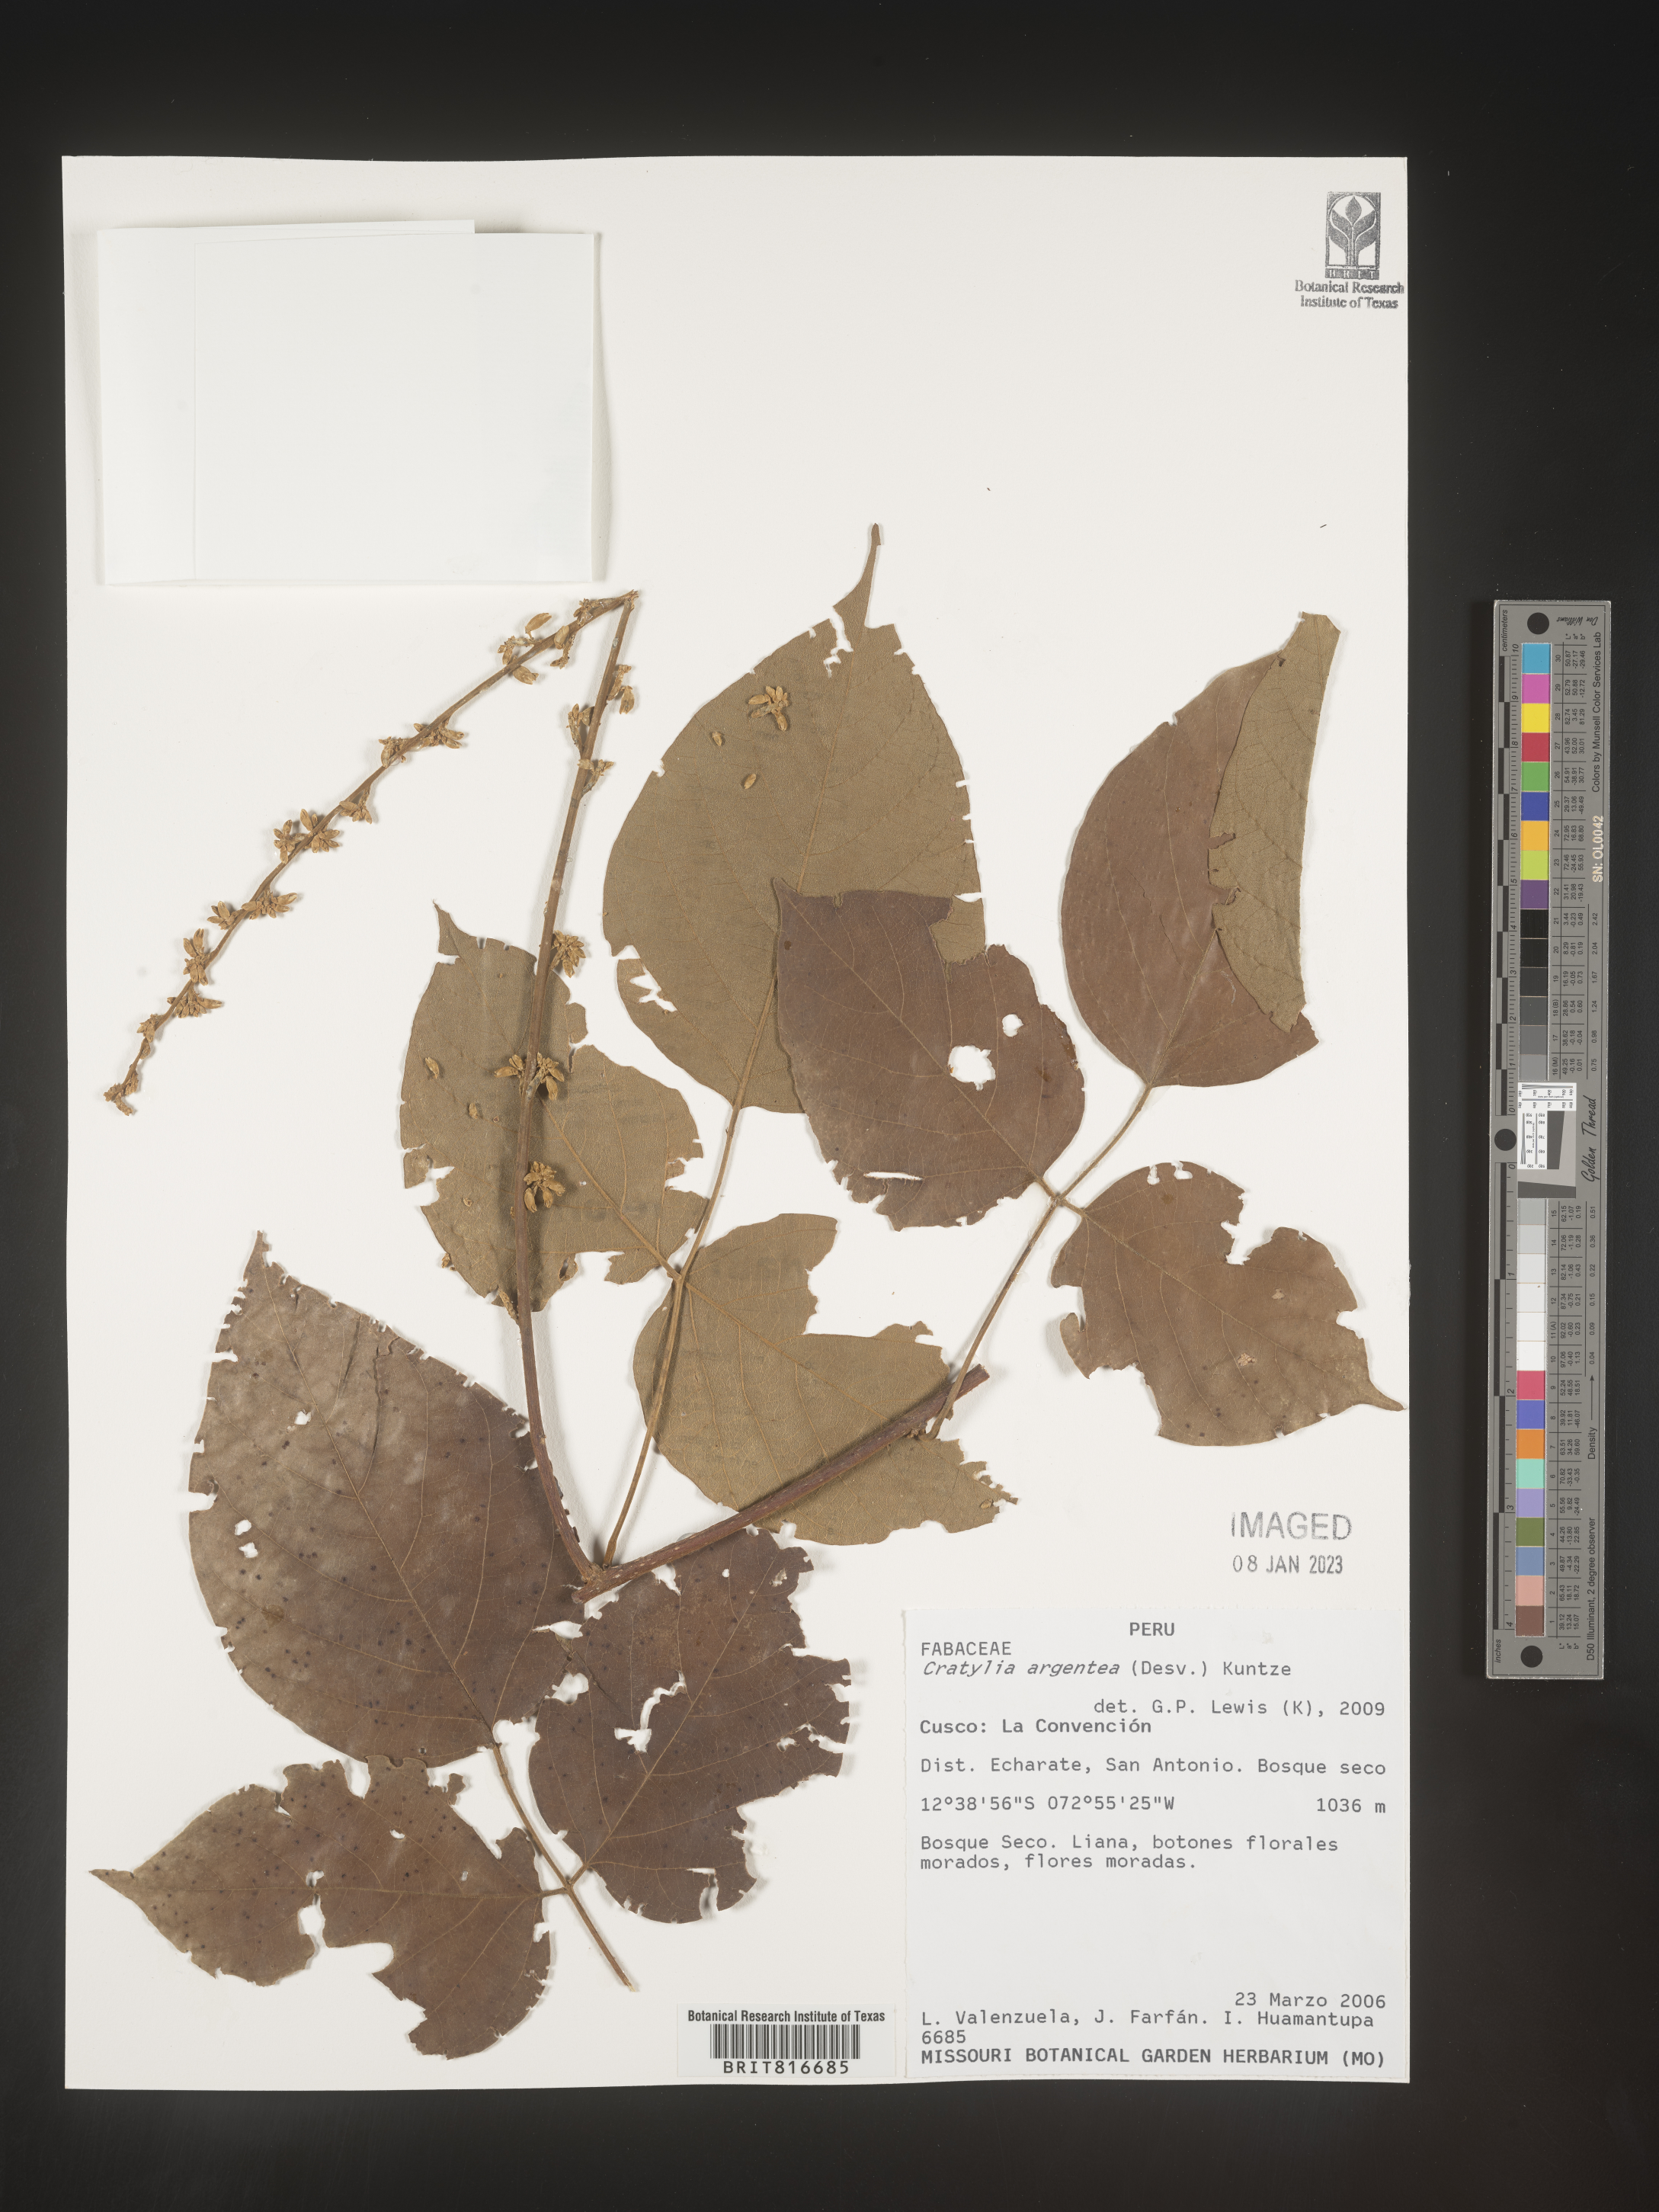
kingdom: Plantae
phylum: Tracheophyta
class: Magnoliopsida
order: Fabales
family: Fabaceae
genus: Cratylia
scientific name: Cratylia
